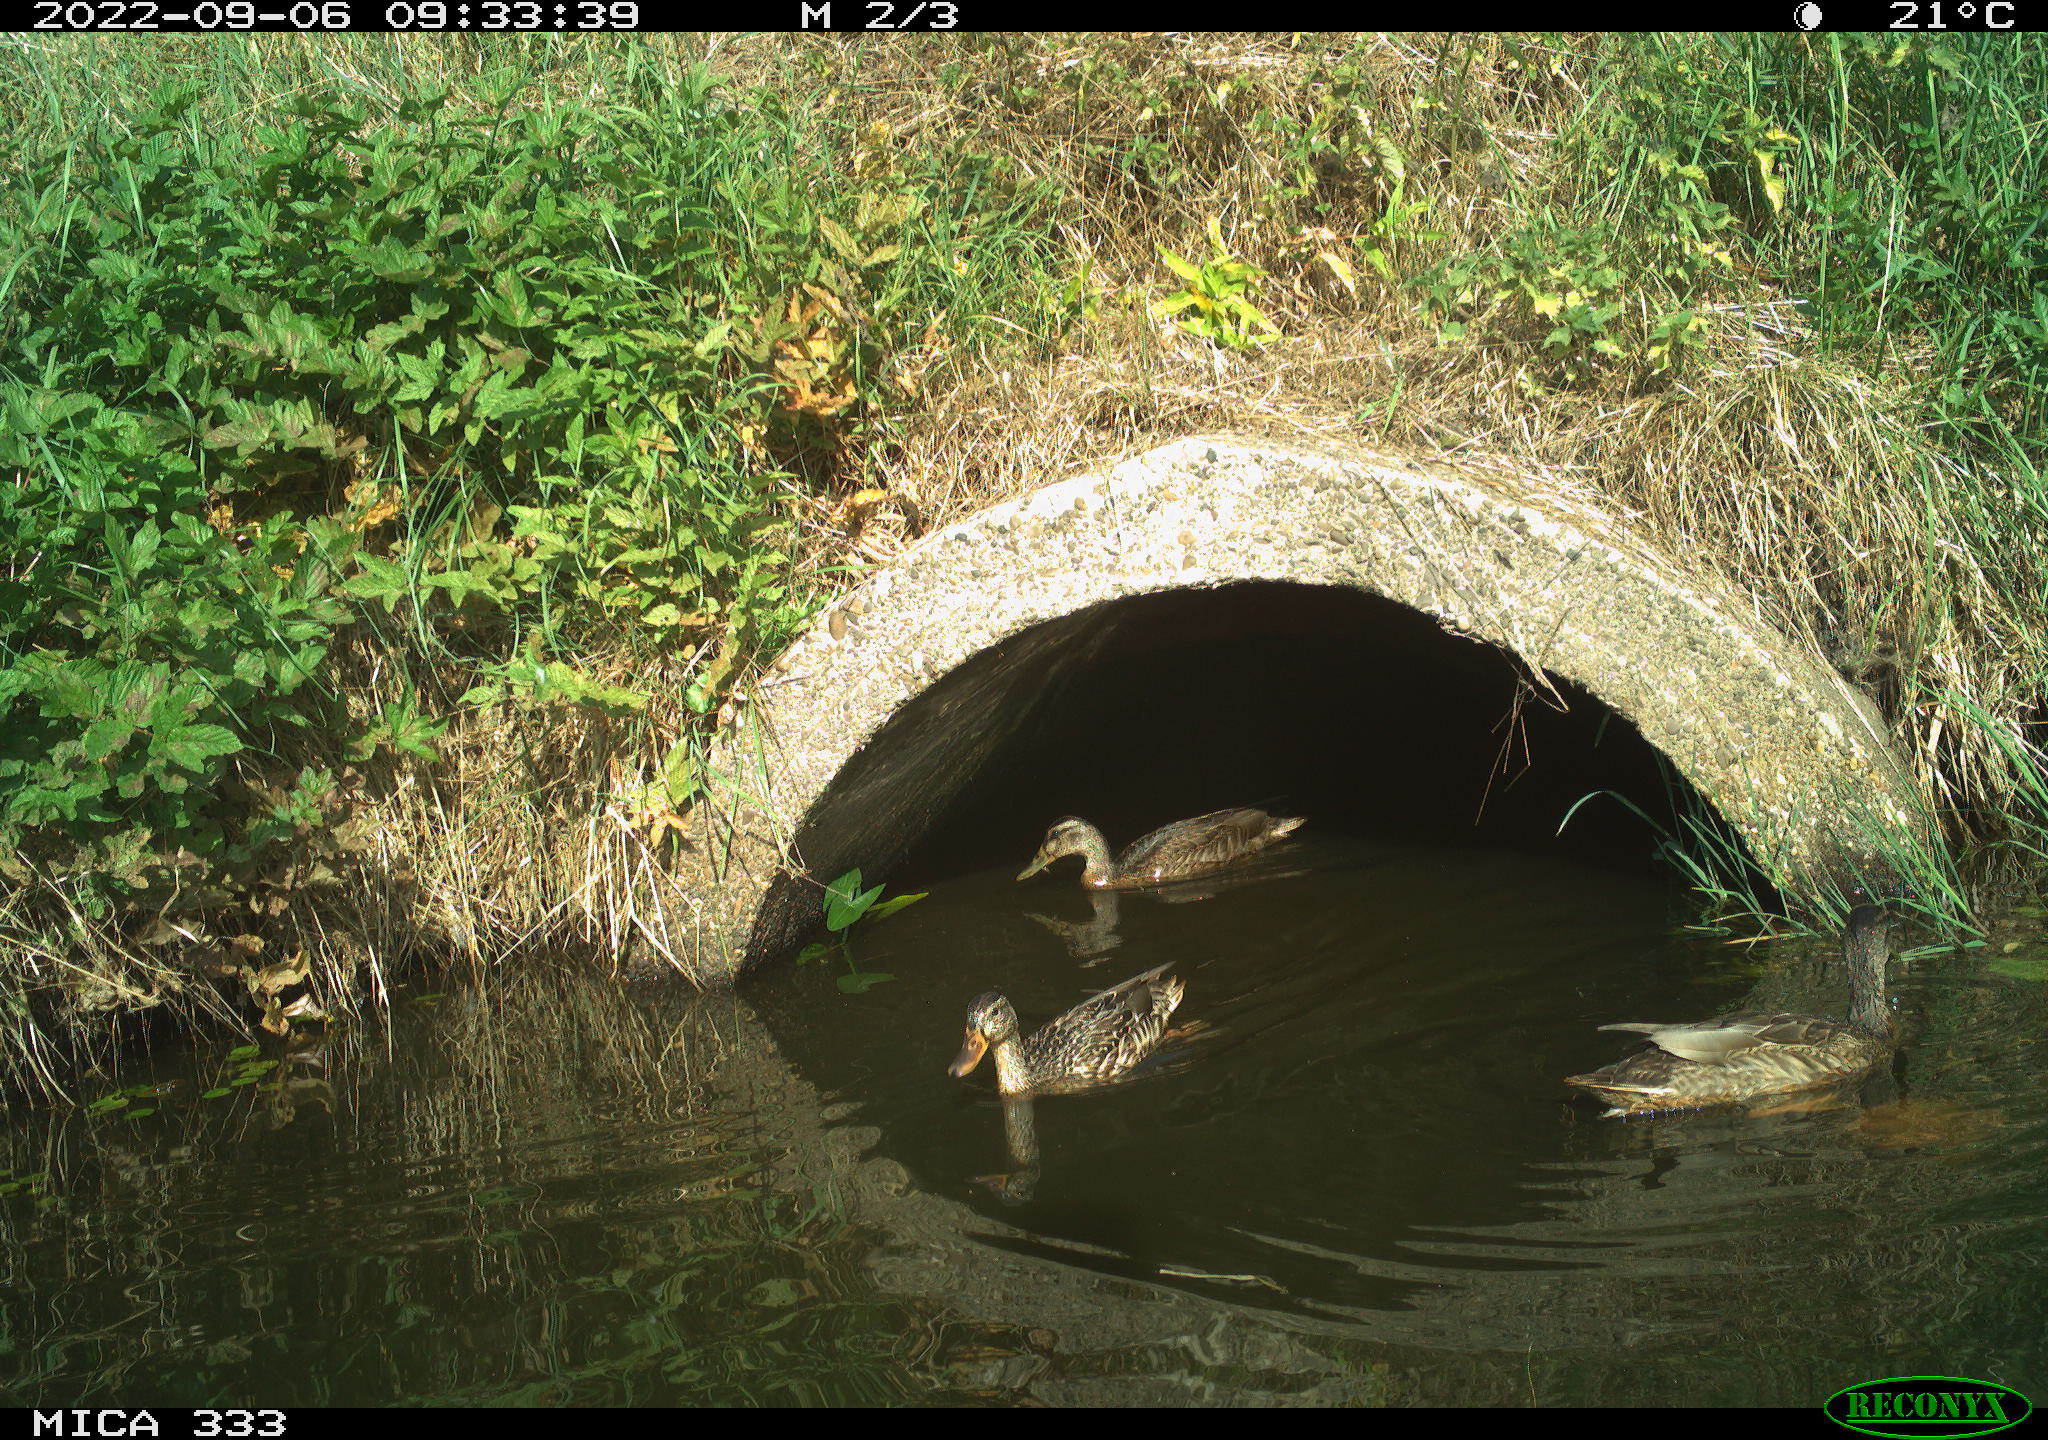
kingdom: Animalia
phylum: Chordata
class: Aves
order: Anseriformes
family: Anatidae
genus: Anas
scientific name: Anas platyrhynchos
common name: Mallard
